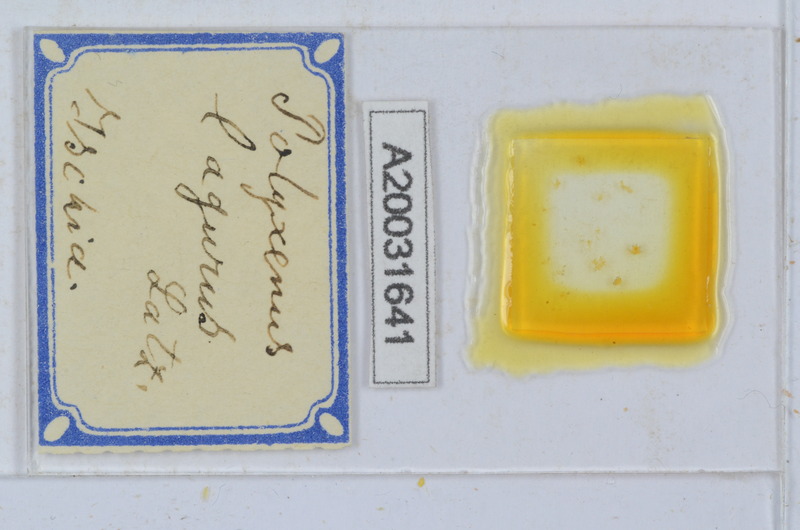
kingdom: Animalia
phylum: Arthropoda
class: Diplopoda
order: Polyxenida
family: Polyxenidae
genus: Polyxenus
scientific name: Polyxenus lagurus
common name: Bristly millipede
